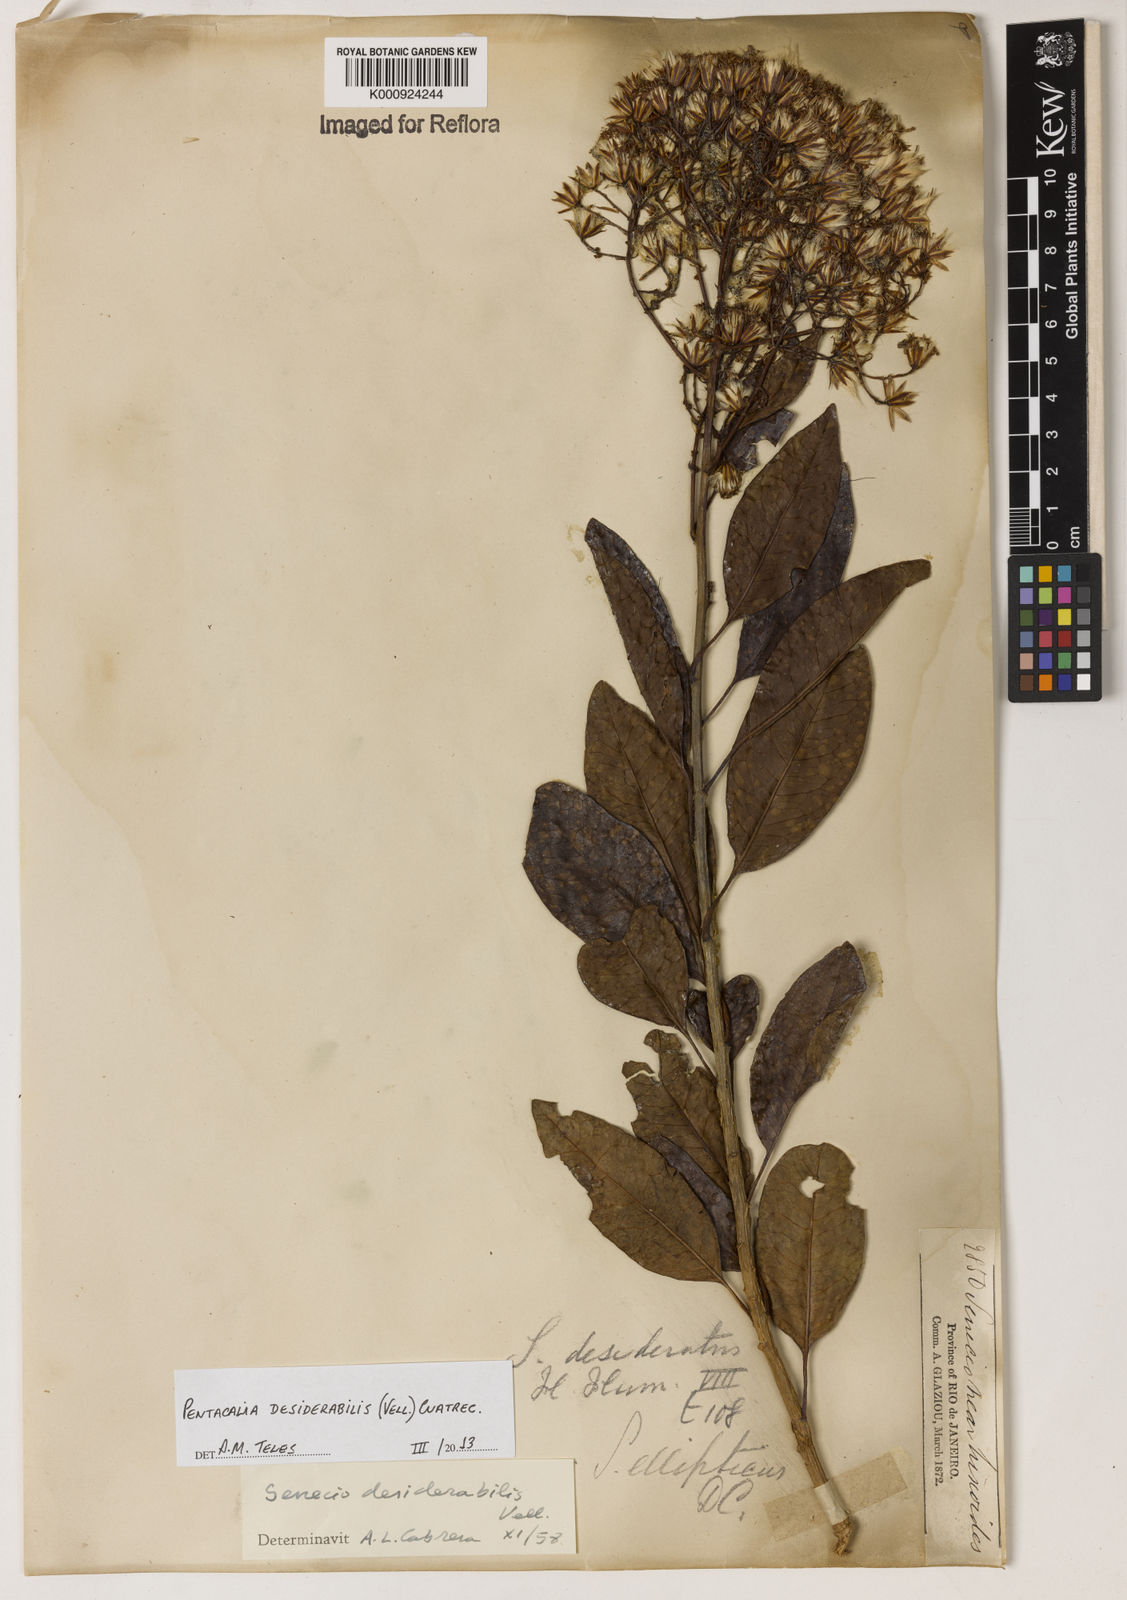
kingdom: Plantae
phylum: Tracheophyta
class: Magnoliopsida
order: Asterales
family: Asteraceae
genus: Pentacalia
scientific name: Pentacalia desiderabilis
